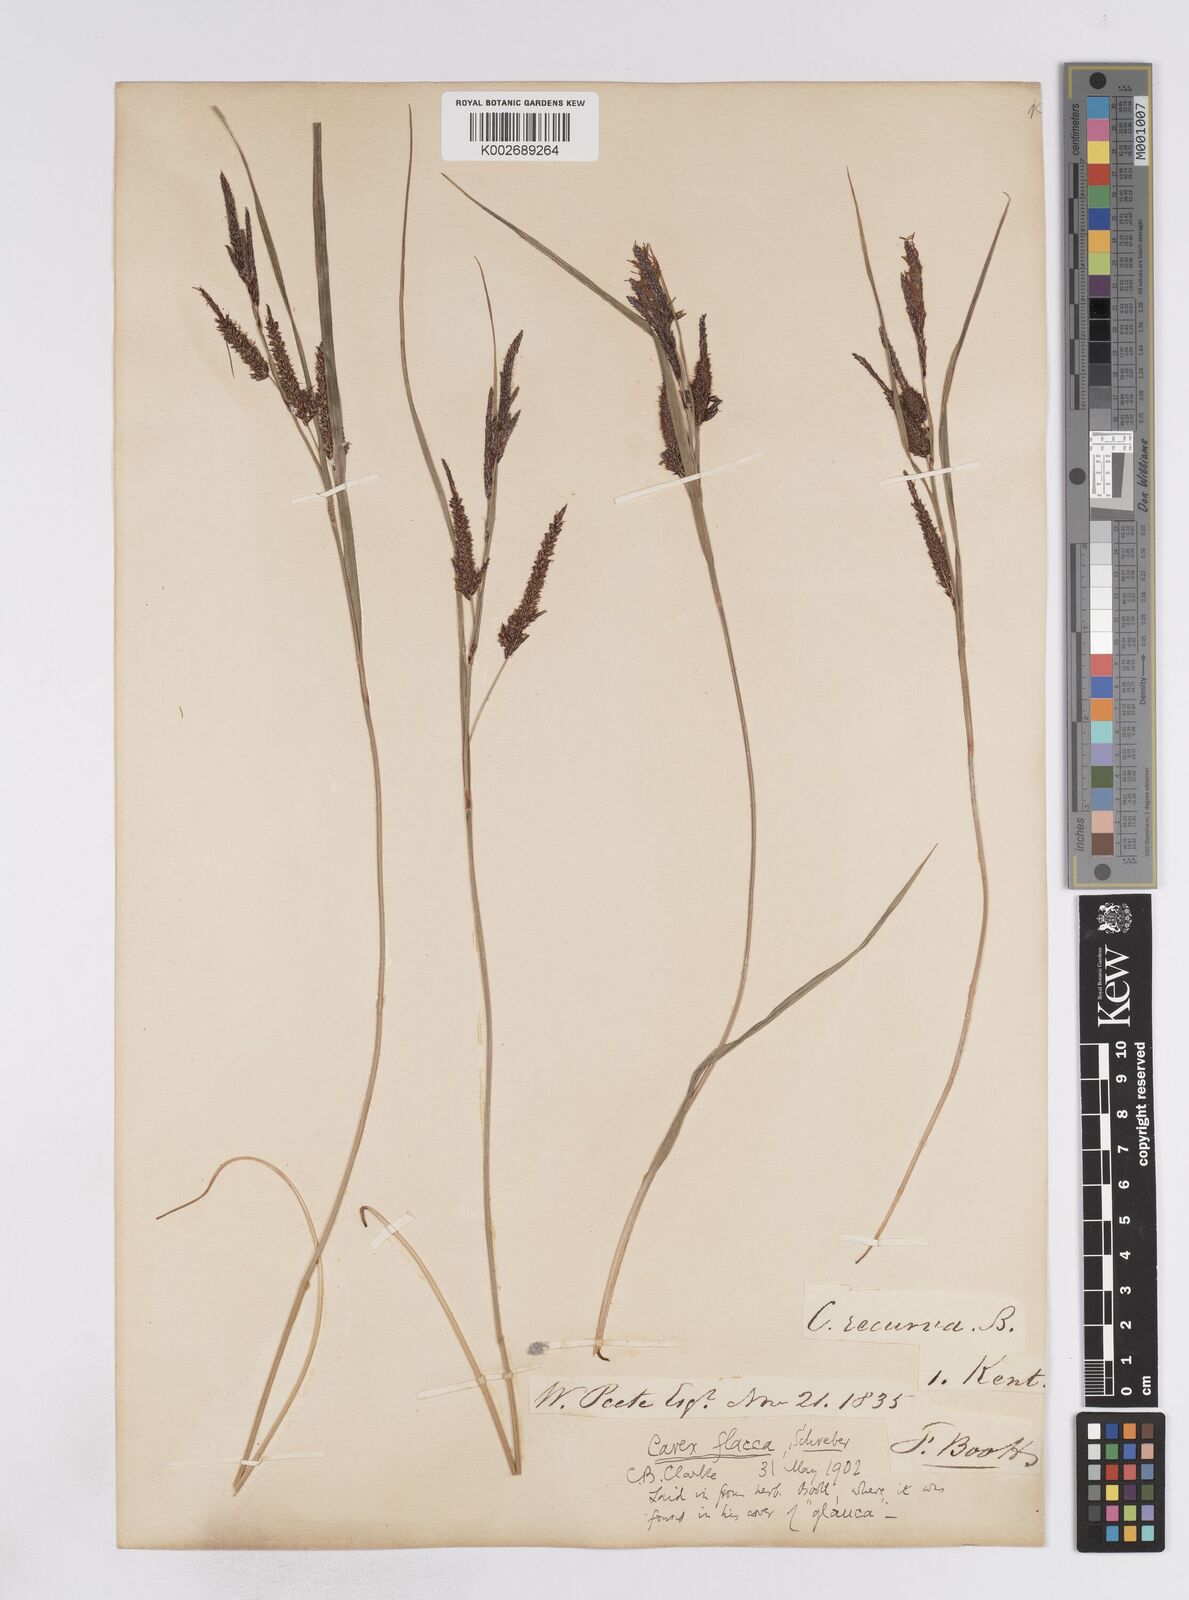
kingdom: Plantae
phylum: Tracheophyta
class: Liliopsida
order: Poales
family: Cyperaceae
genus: Carex
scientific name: Carex flacca
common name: Glaucous sedge
